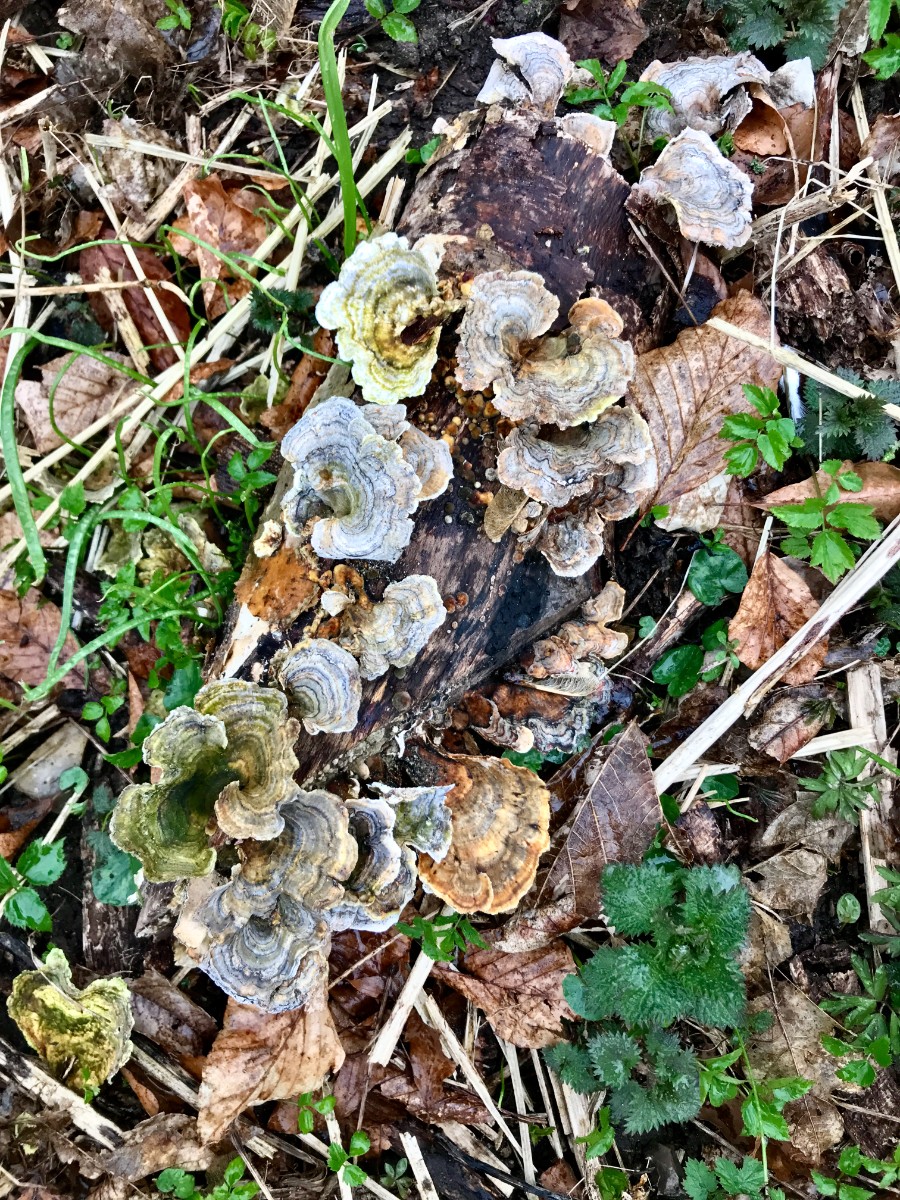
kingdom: Fungi
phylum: Basidiomycota
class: Agaricomycetes
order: Polyporales
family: Polyporaceae
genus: Trametes
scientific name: Trametes versicolor
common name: broget læderporesvamp
